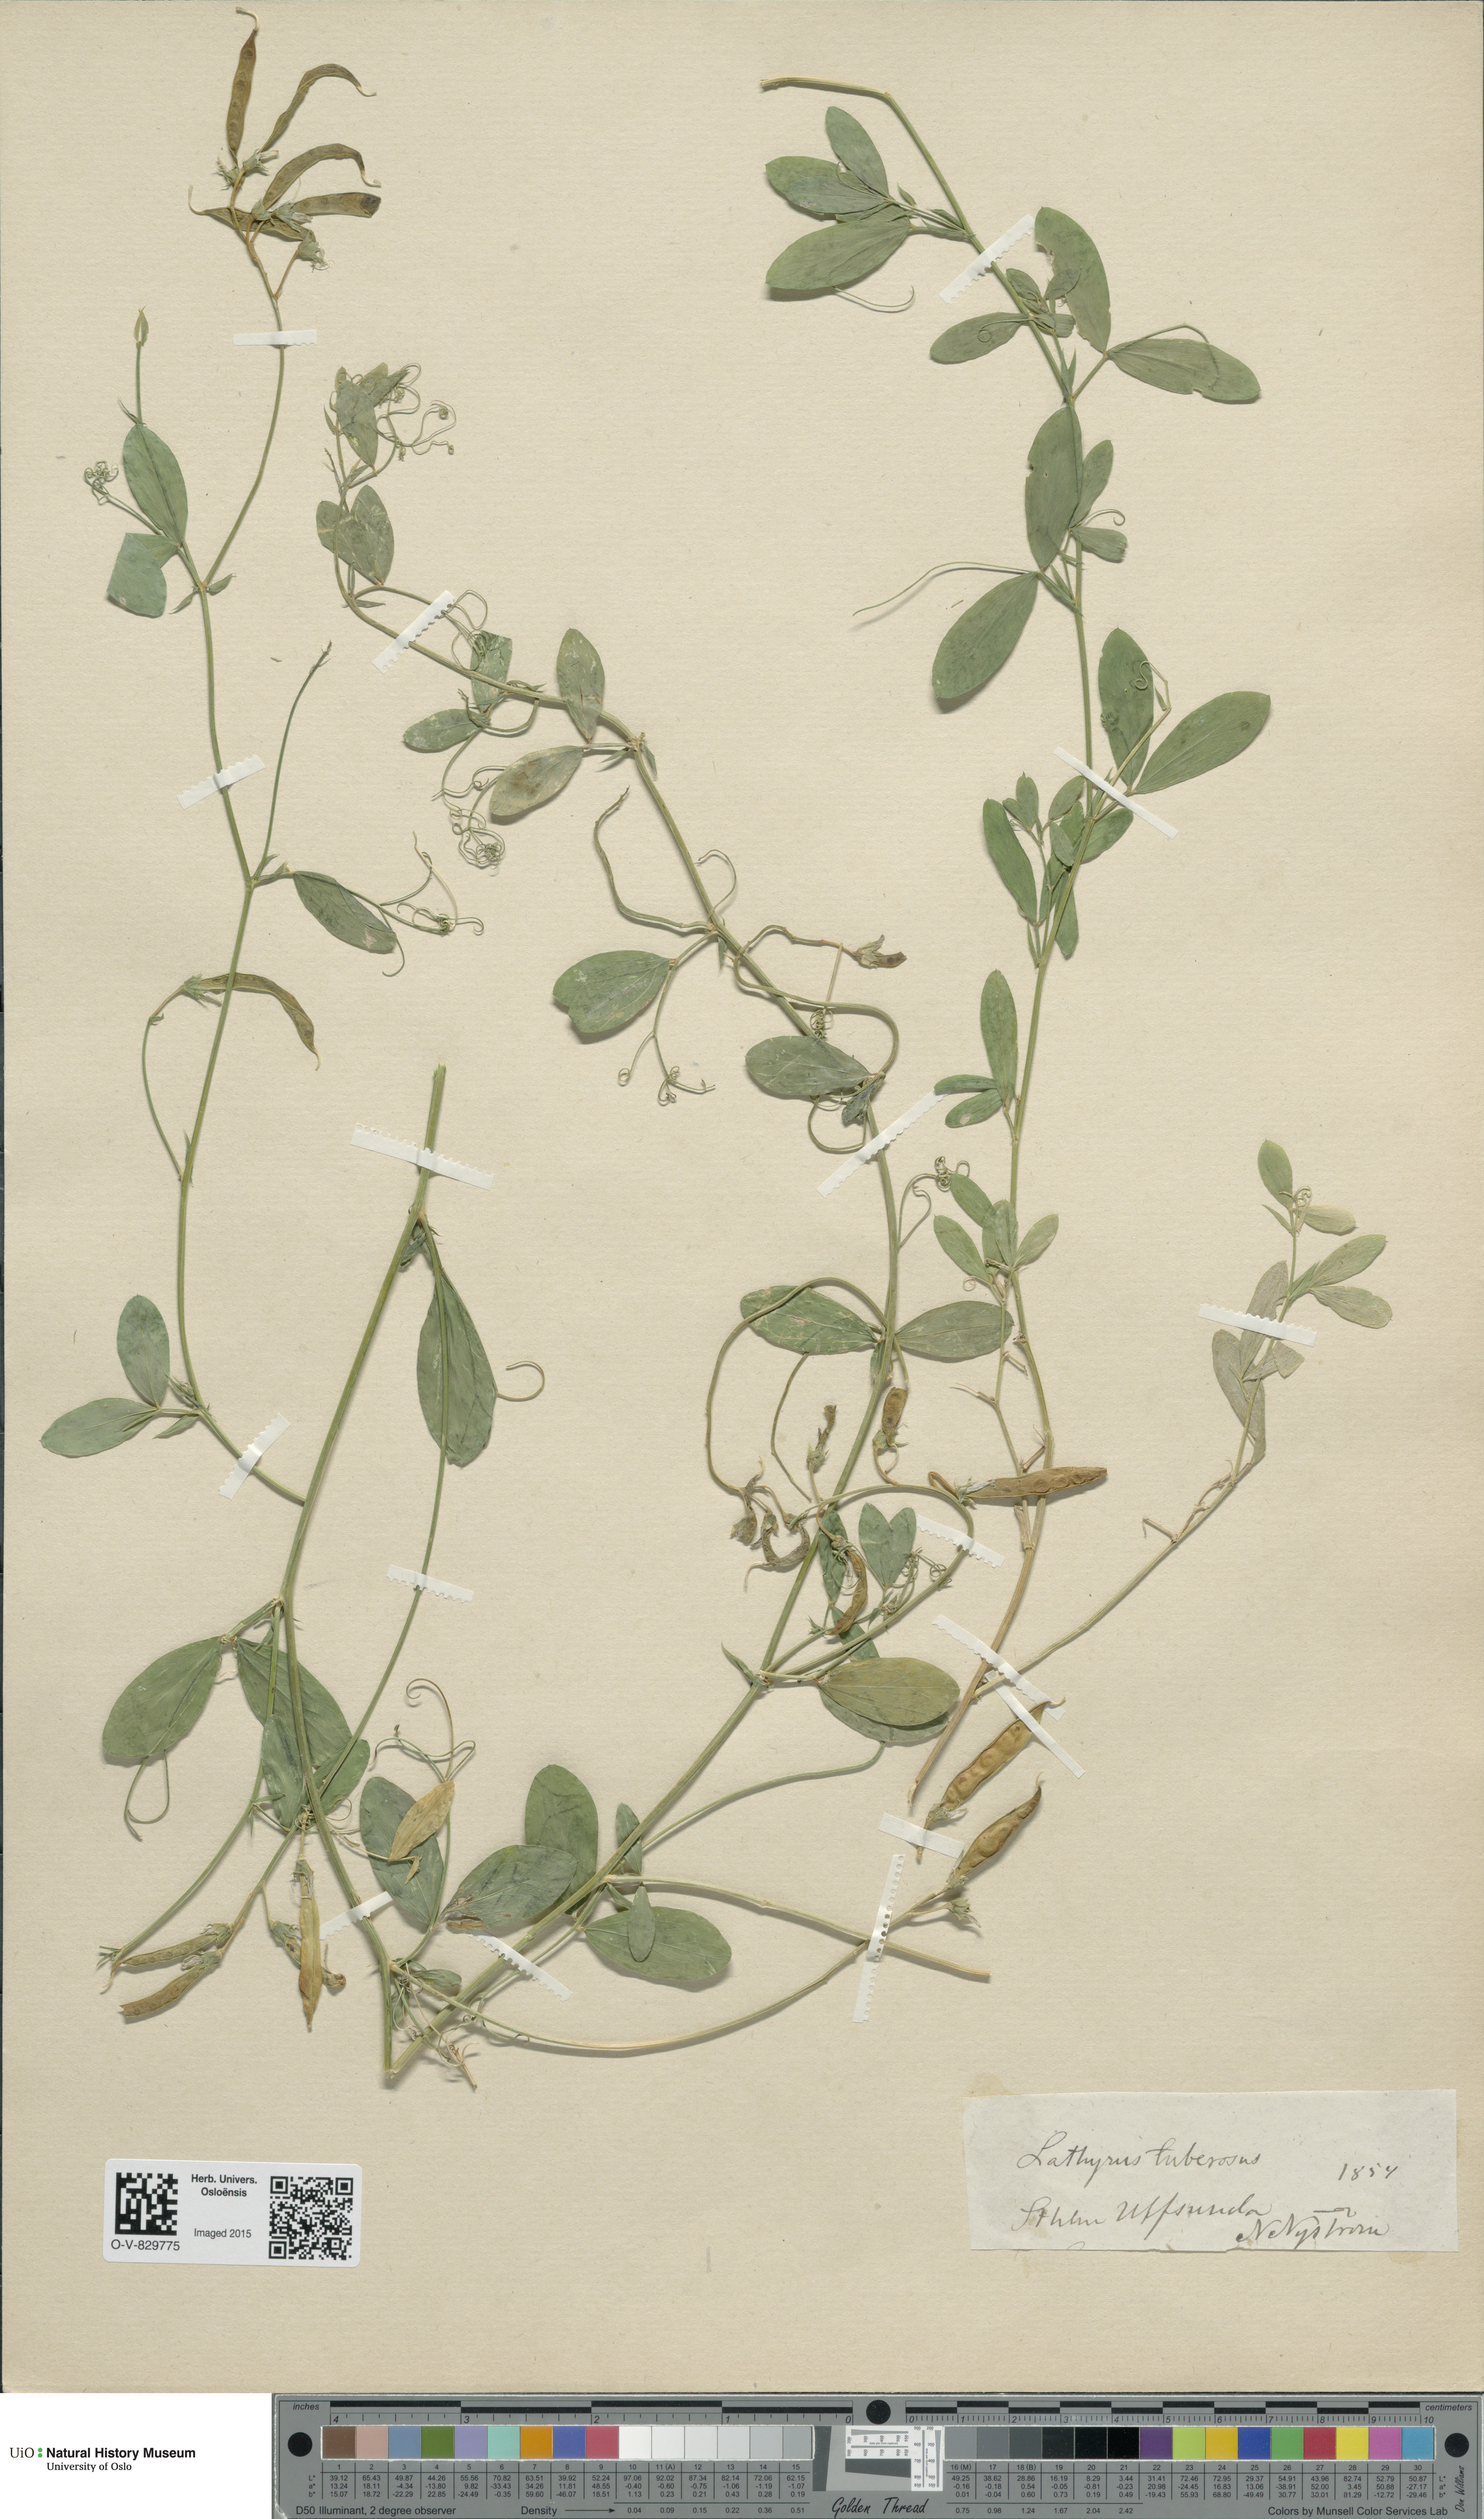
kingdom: Plantae
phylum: Tracheophyta
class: Magnoliopsida
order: Fabales
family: Fabaceae
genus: Lathyrus
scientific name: Lathyrus tuberosus
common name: Tuberous pea
